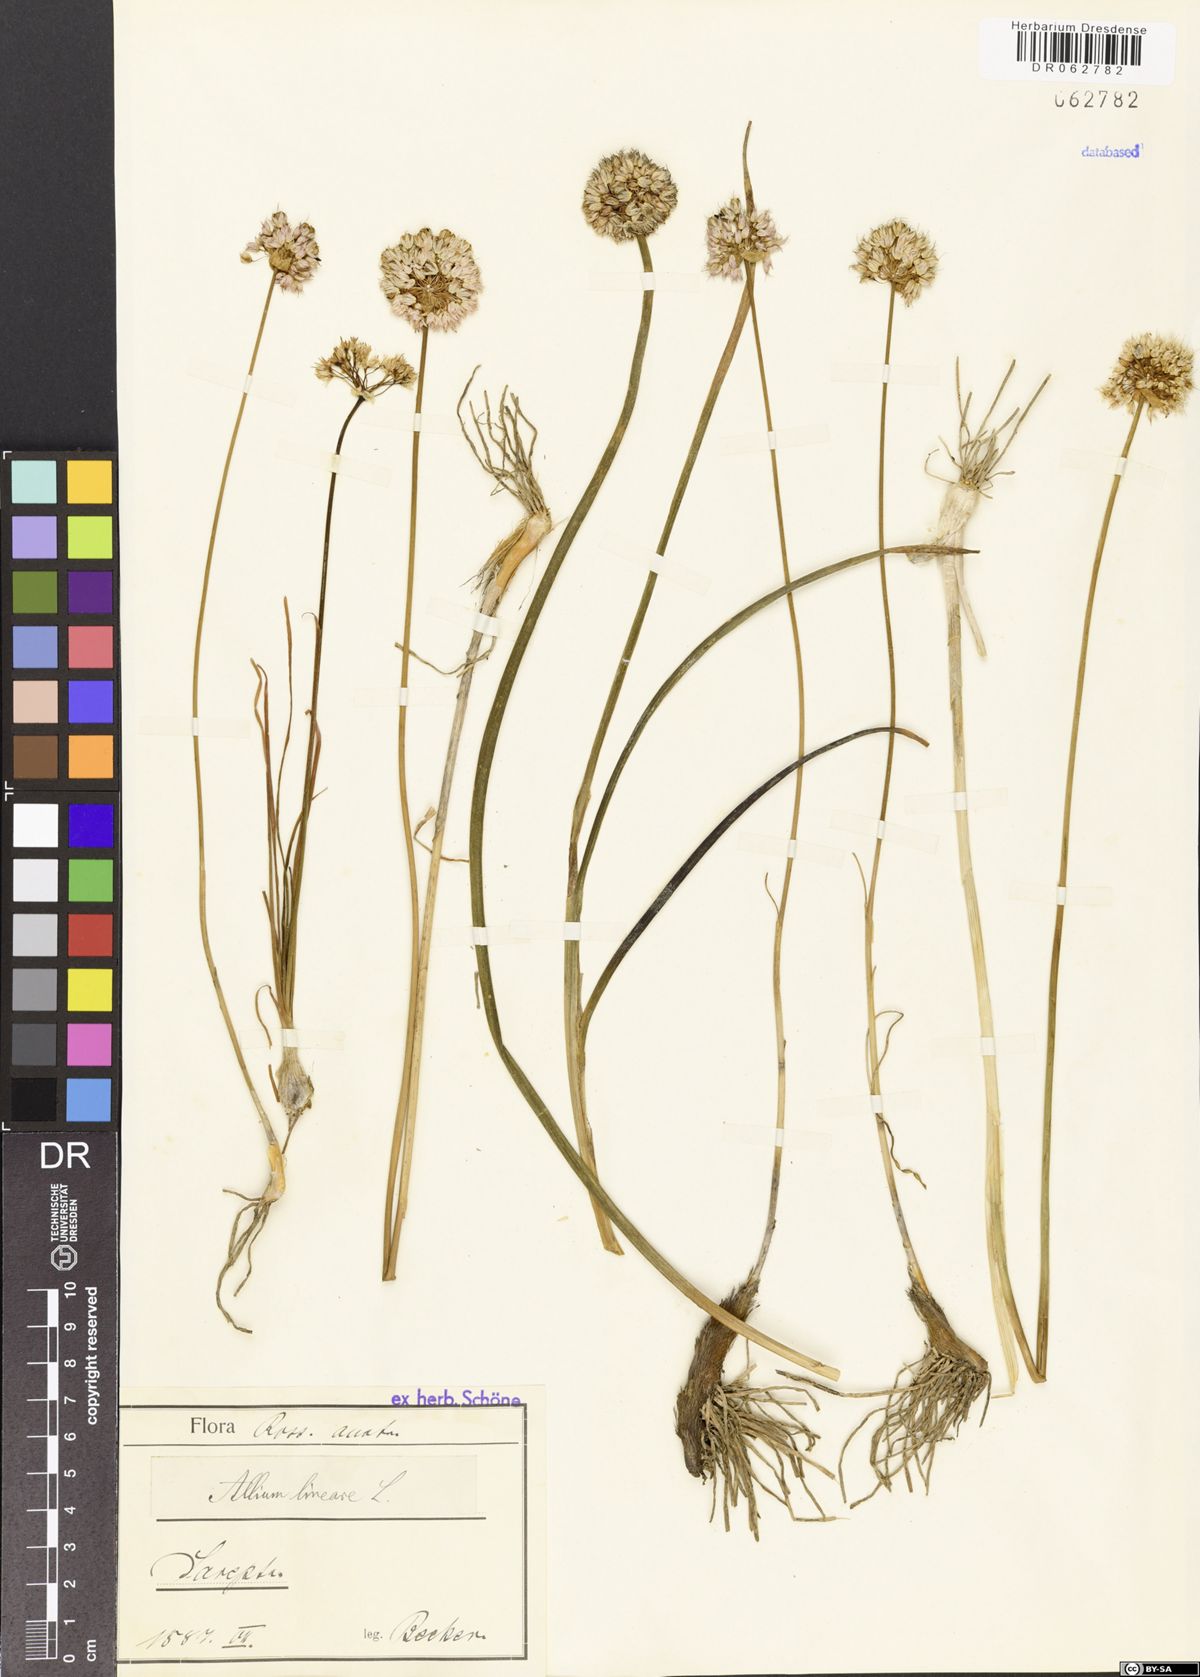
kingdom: Plantae
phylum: Tracheophyta
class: Liliopsida
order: Asparagales
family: Amaryllidaceae
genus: Allium
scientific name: Allium lineare
